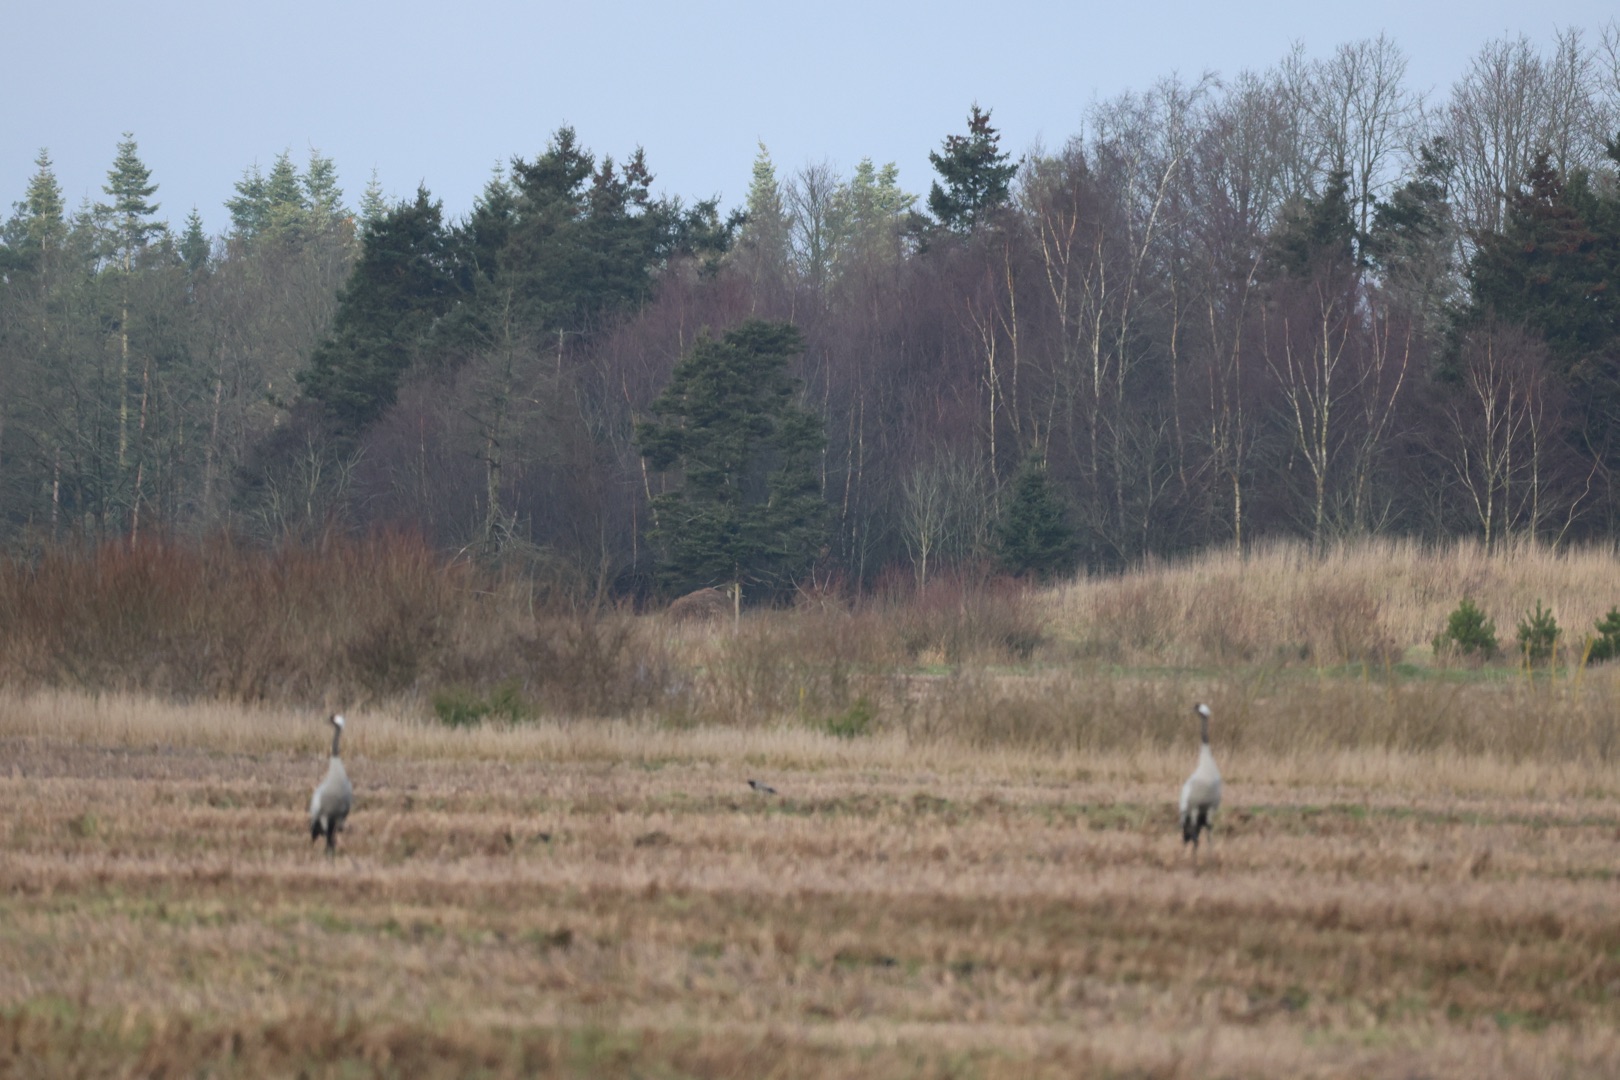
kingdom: Animalia
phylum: Chordata
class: Aves
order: Gruiformes
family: Gruidae
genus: Grus
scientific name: Grus grus
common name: Trane
